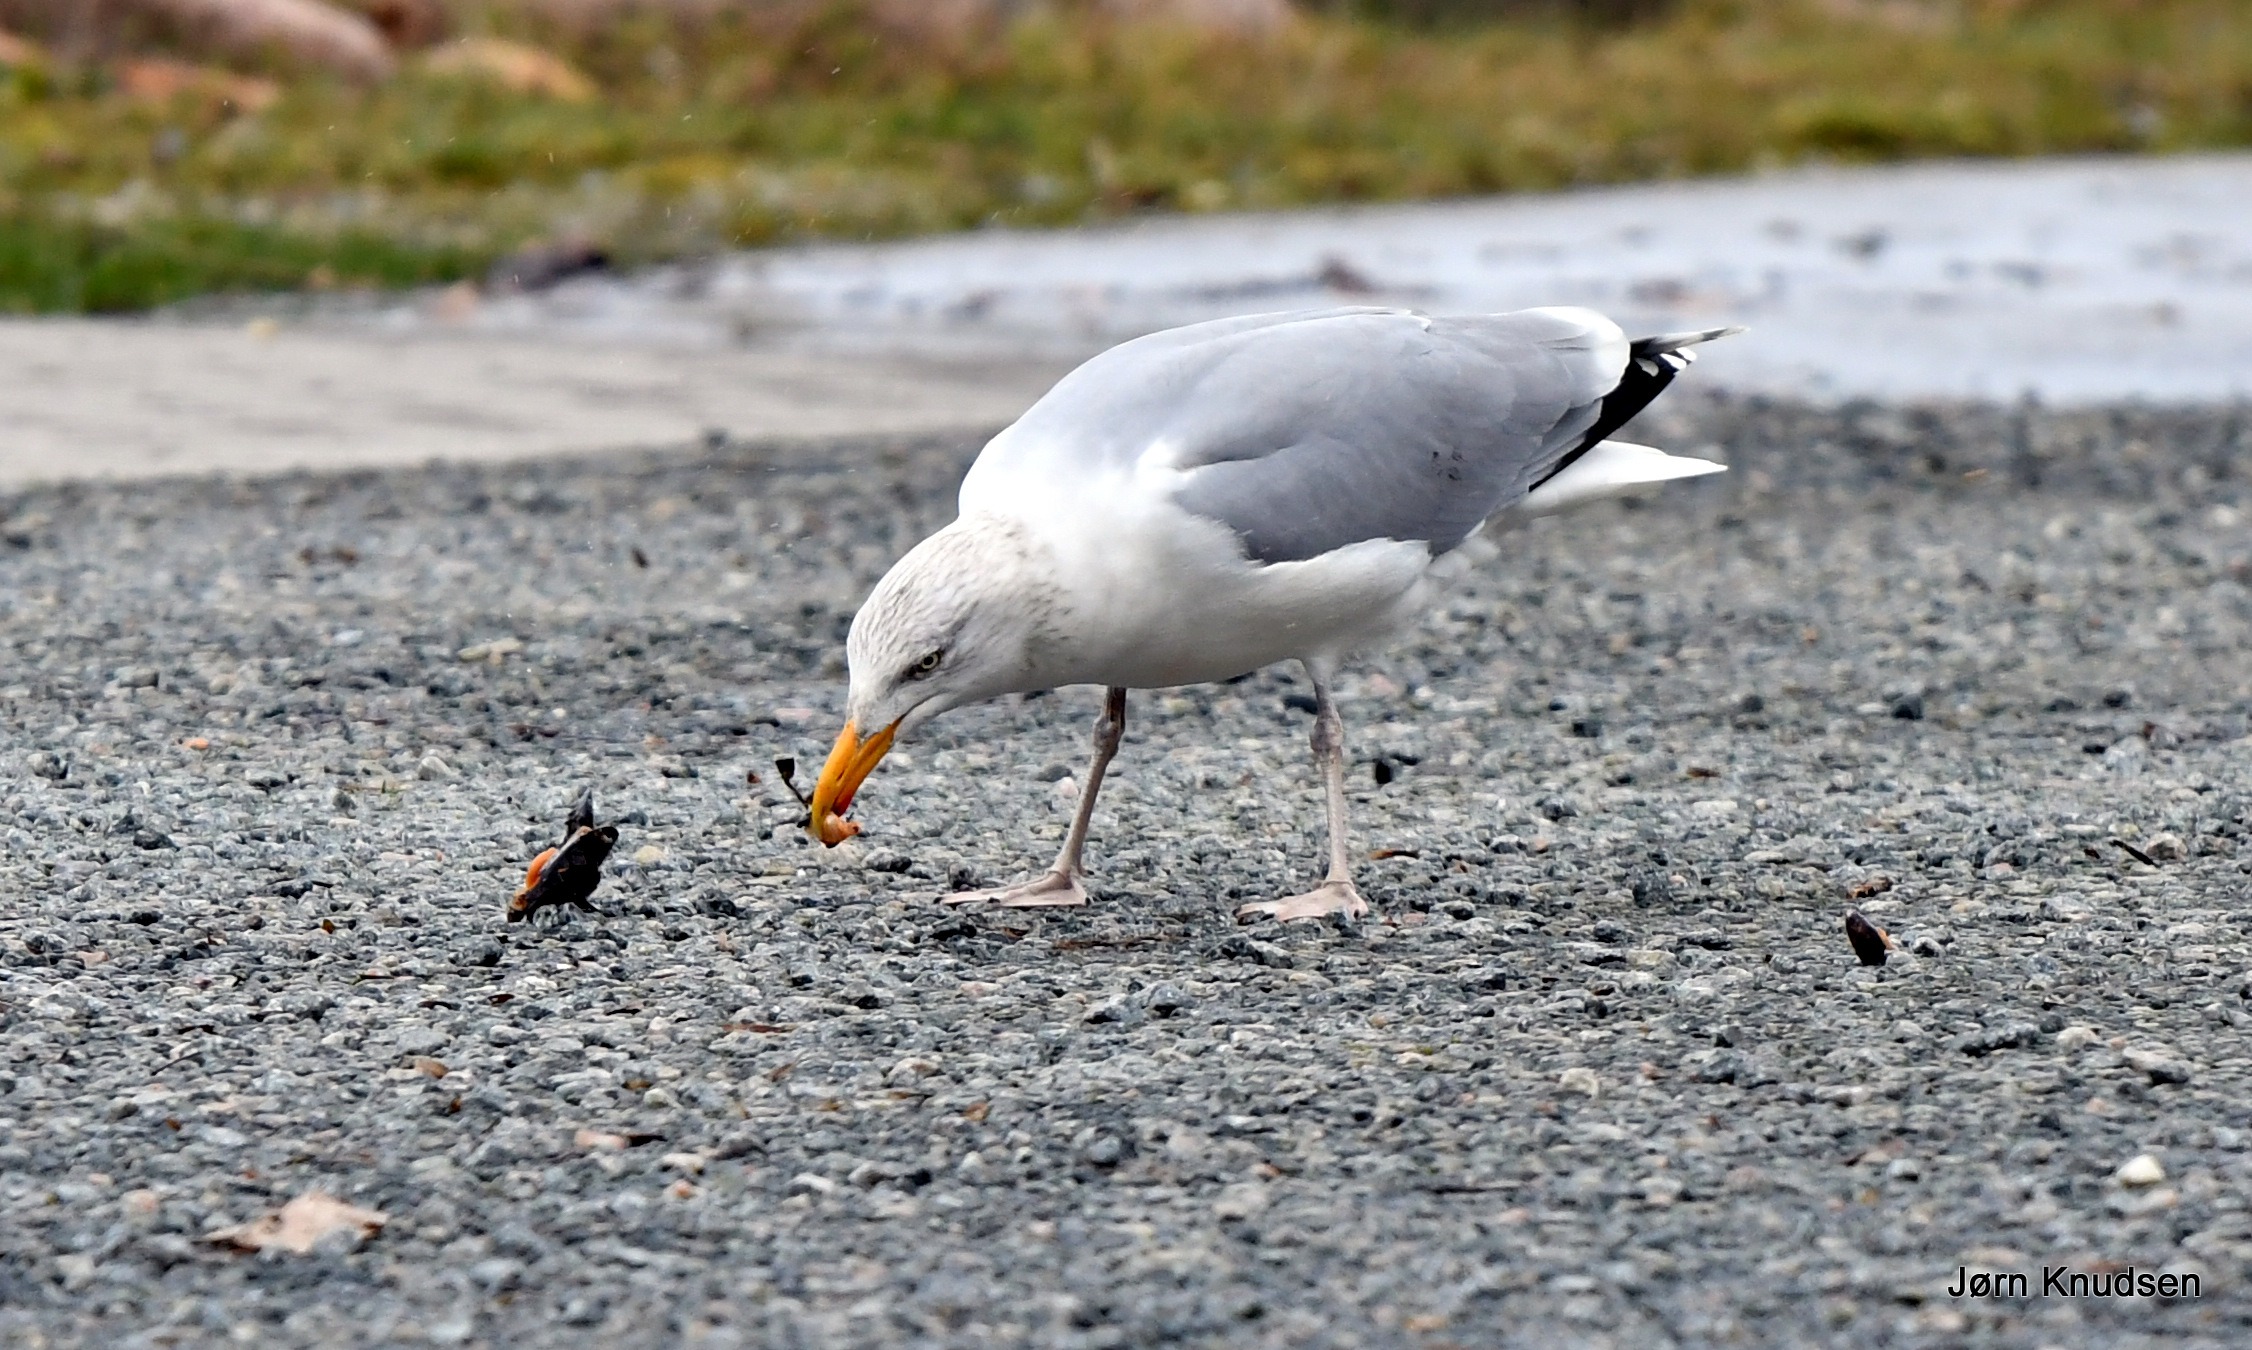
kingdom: Animalia
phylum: Chordata
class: Aves
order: Charadriiformes
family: Laridae
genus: Larus
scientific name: Larus argentatus
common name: Sølvmåge
